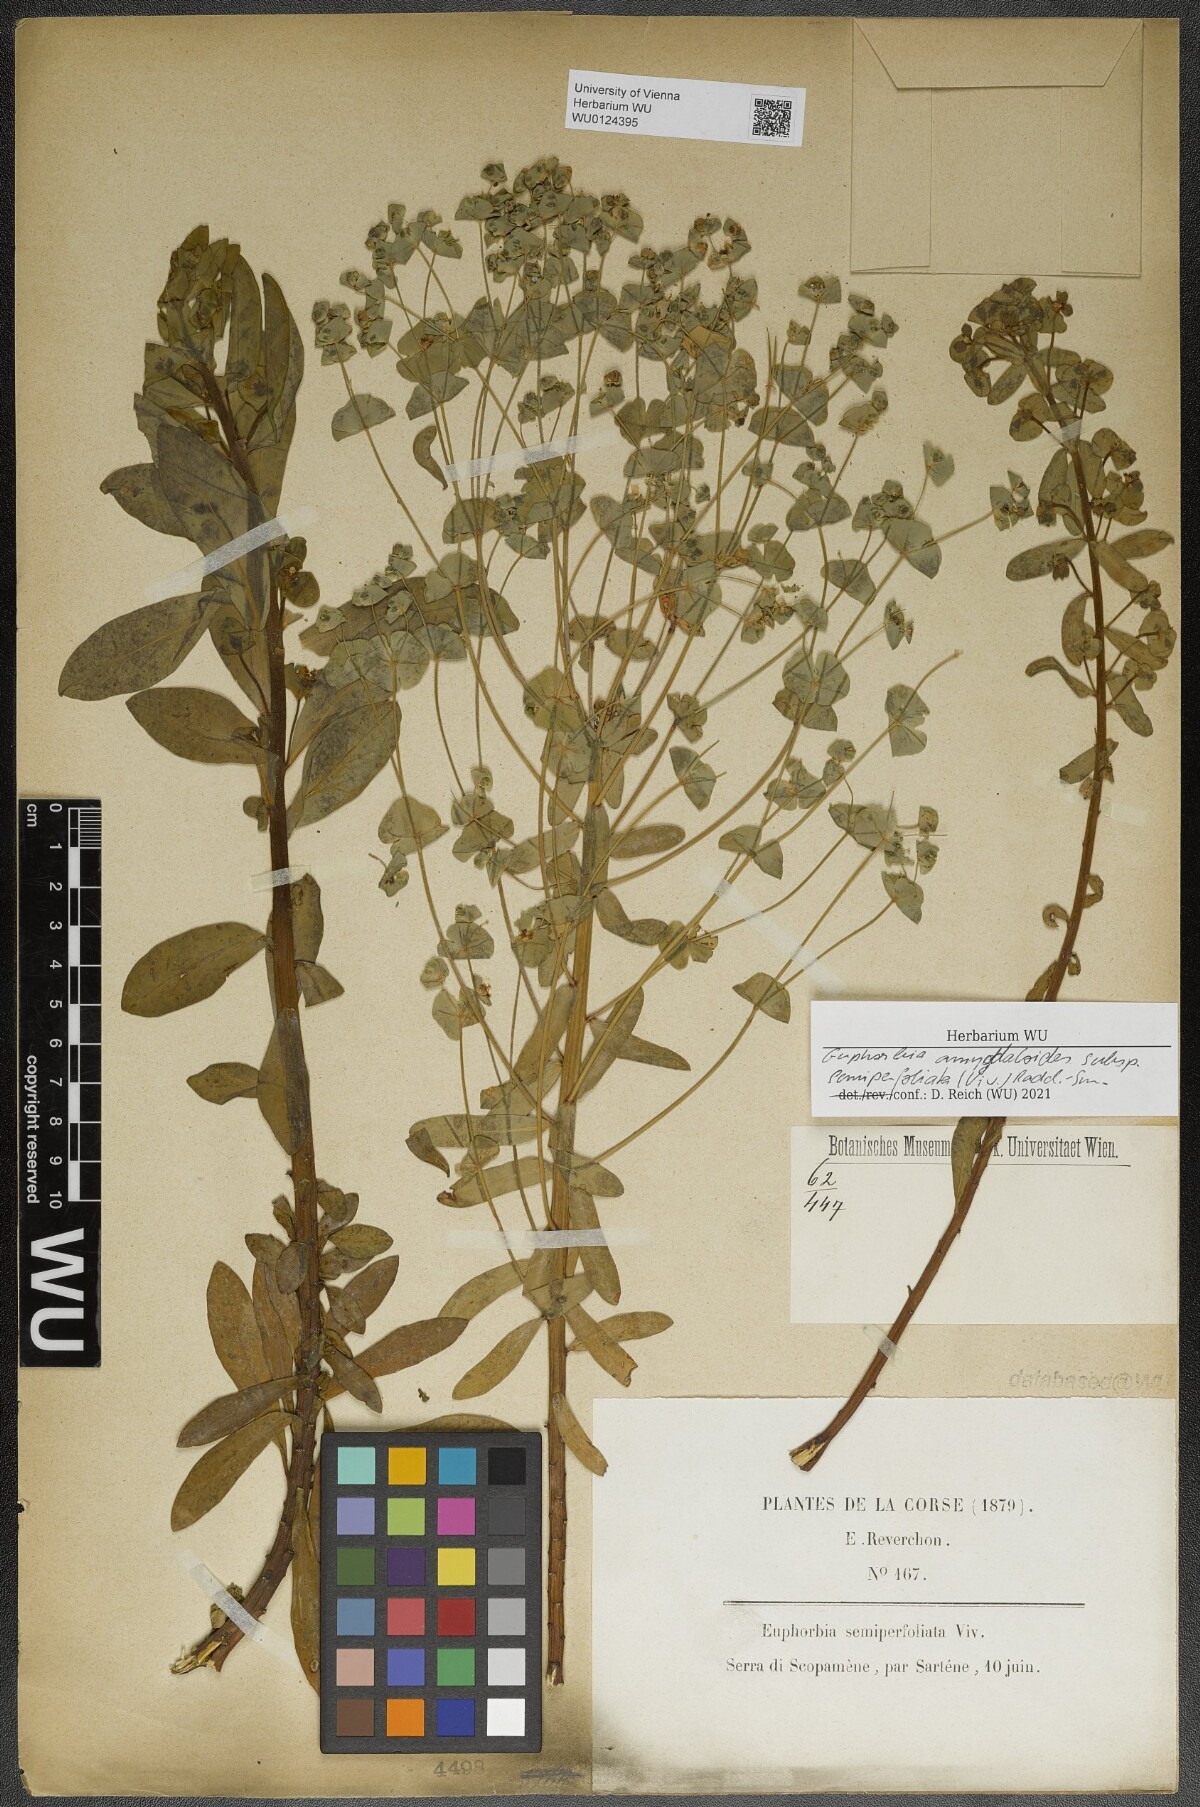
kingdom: Plantae
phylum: Tracheophyta
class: Magnoliopsida
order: Malpighiales
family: Euphorbiaceae
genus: Euphorbia
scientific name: Euphorbia semiperfoliata
